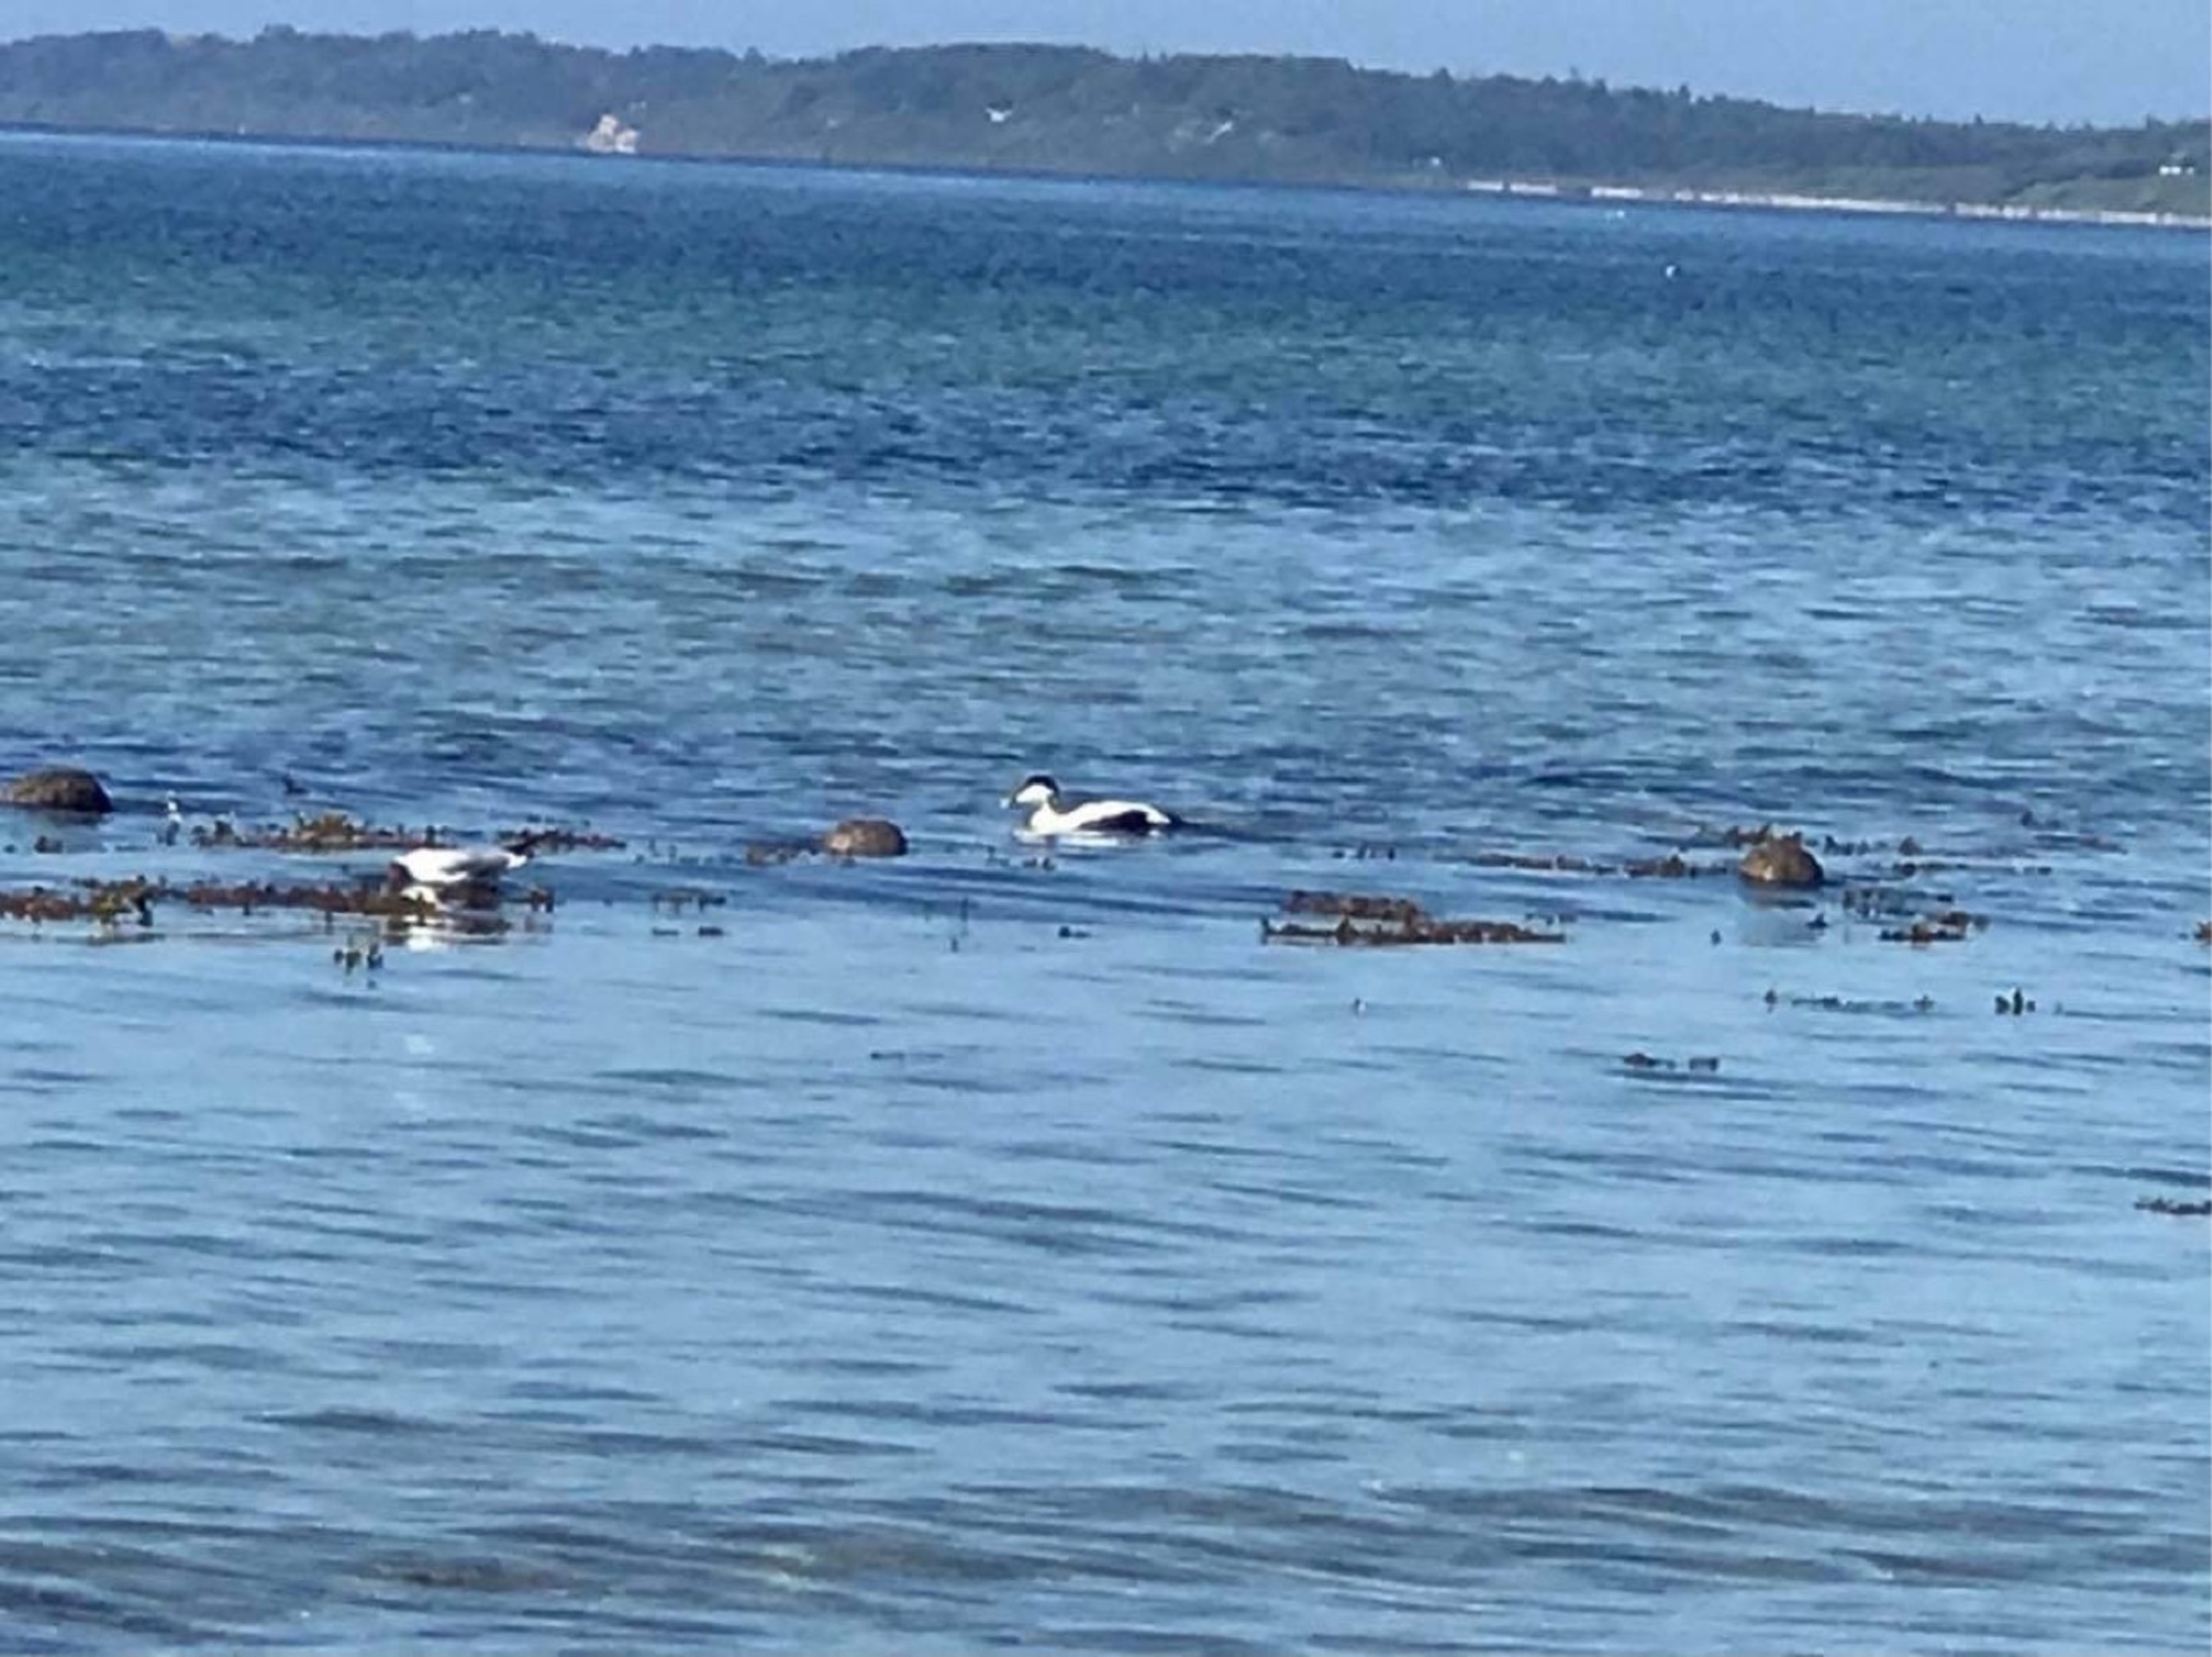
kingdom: Animalia
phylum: Chordata
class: Aves
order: Anseriformes
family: Anatidae
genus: Somateria
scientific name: Somateria mollissima
